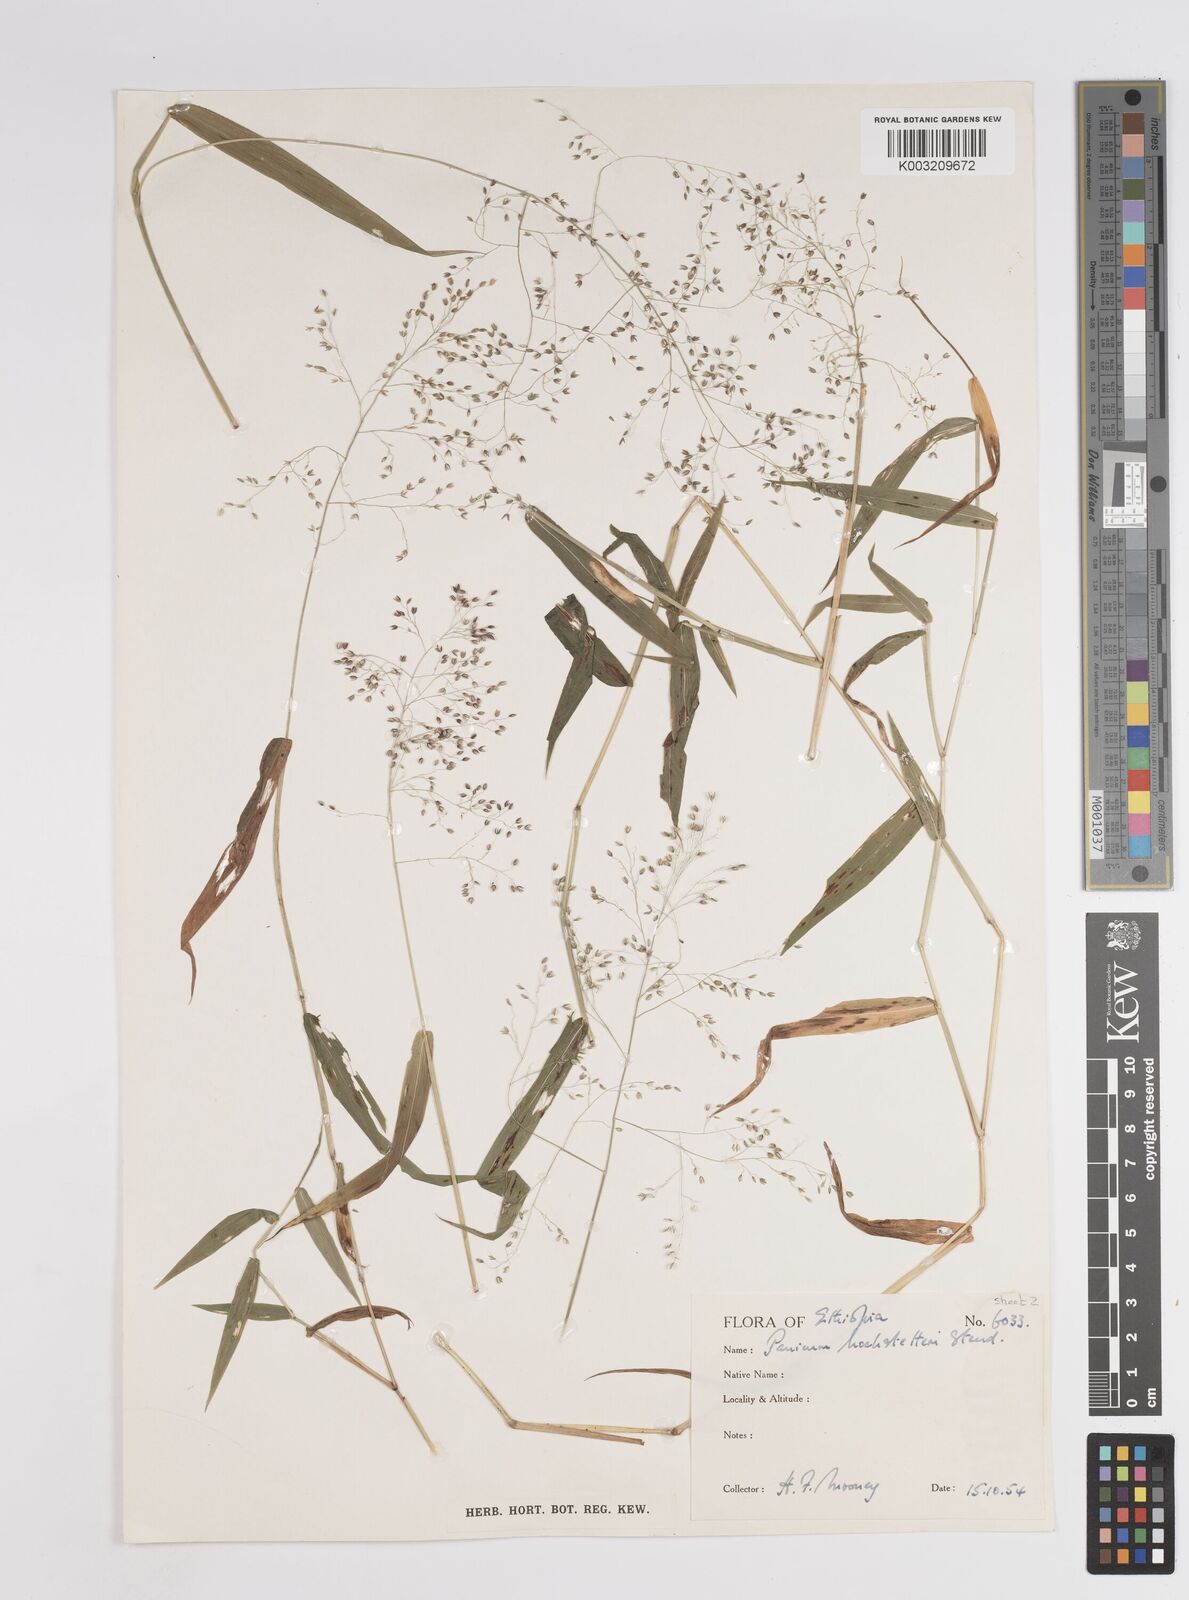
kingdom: Plantae
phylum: Tracheophyta
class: Liliopsida
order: Poales
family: Poaceae
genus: Panicum
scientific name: Panicum hochstetteri
